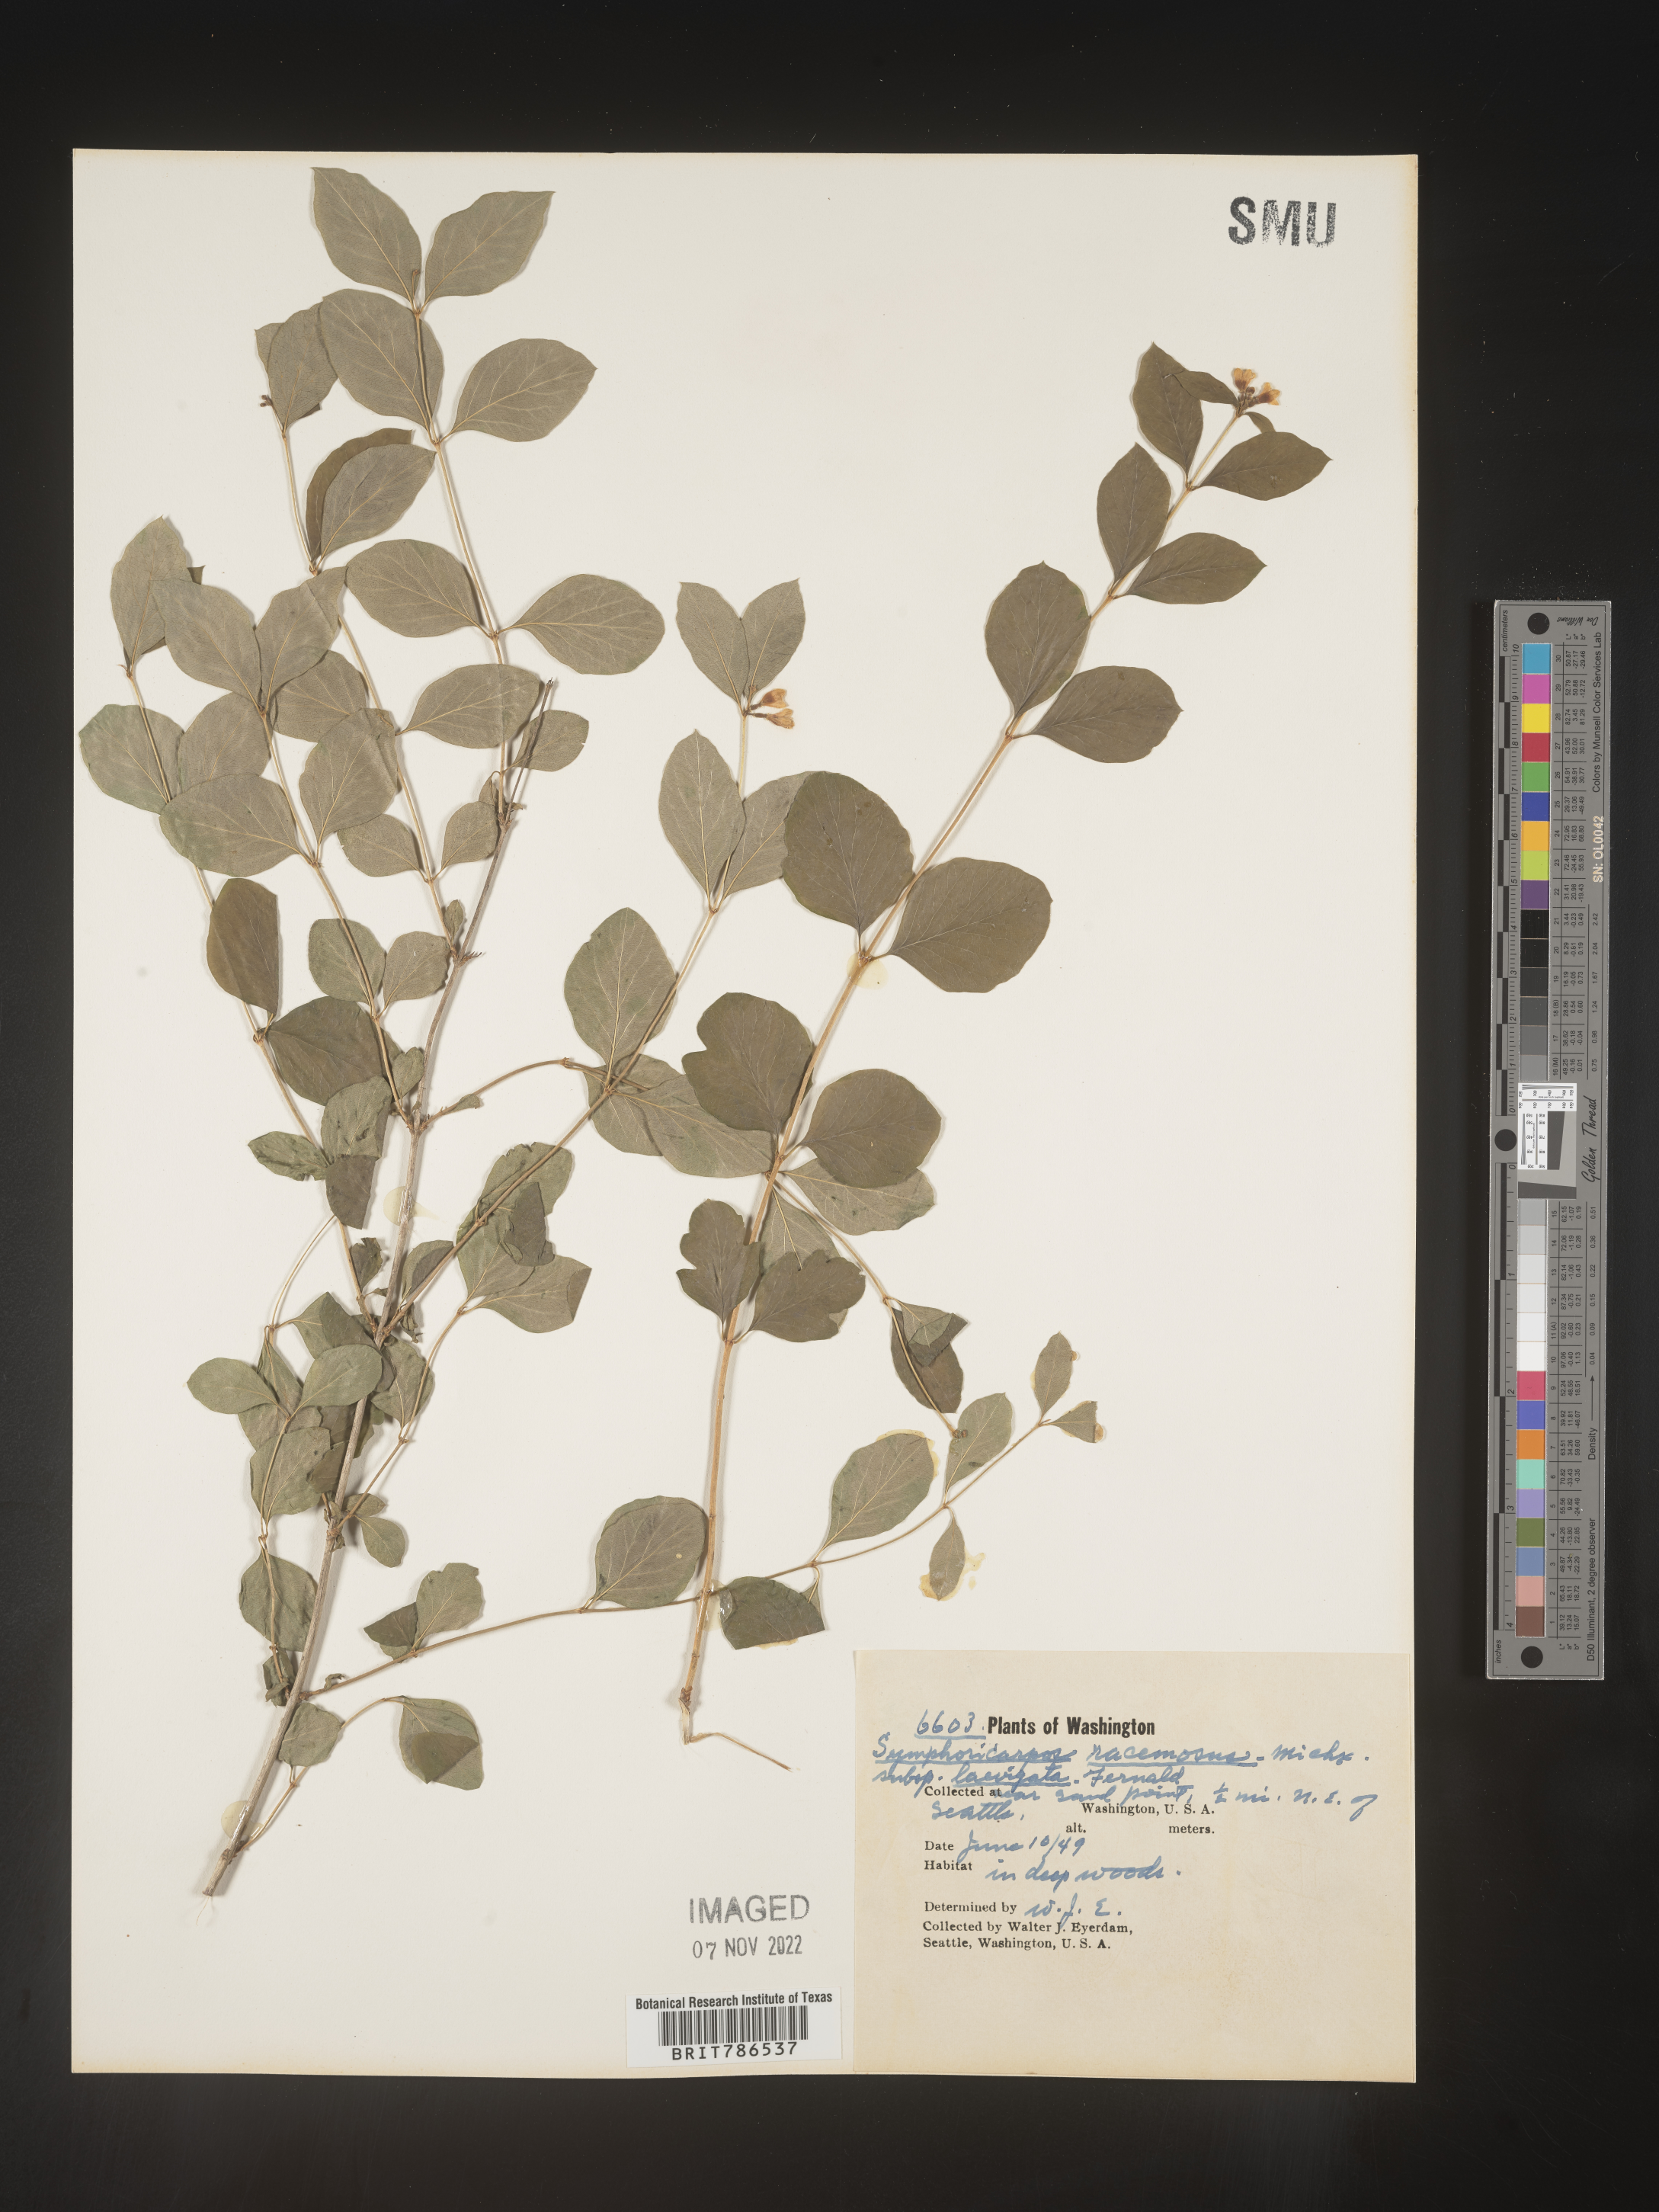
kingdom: Plantae
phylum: Tracheophyta
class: Magnoliopsida
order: Dipsacales
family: Caprifoliaceae
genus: Symphoricarpos
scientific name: Symphoricarpos
